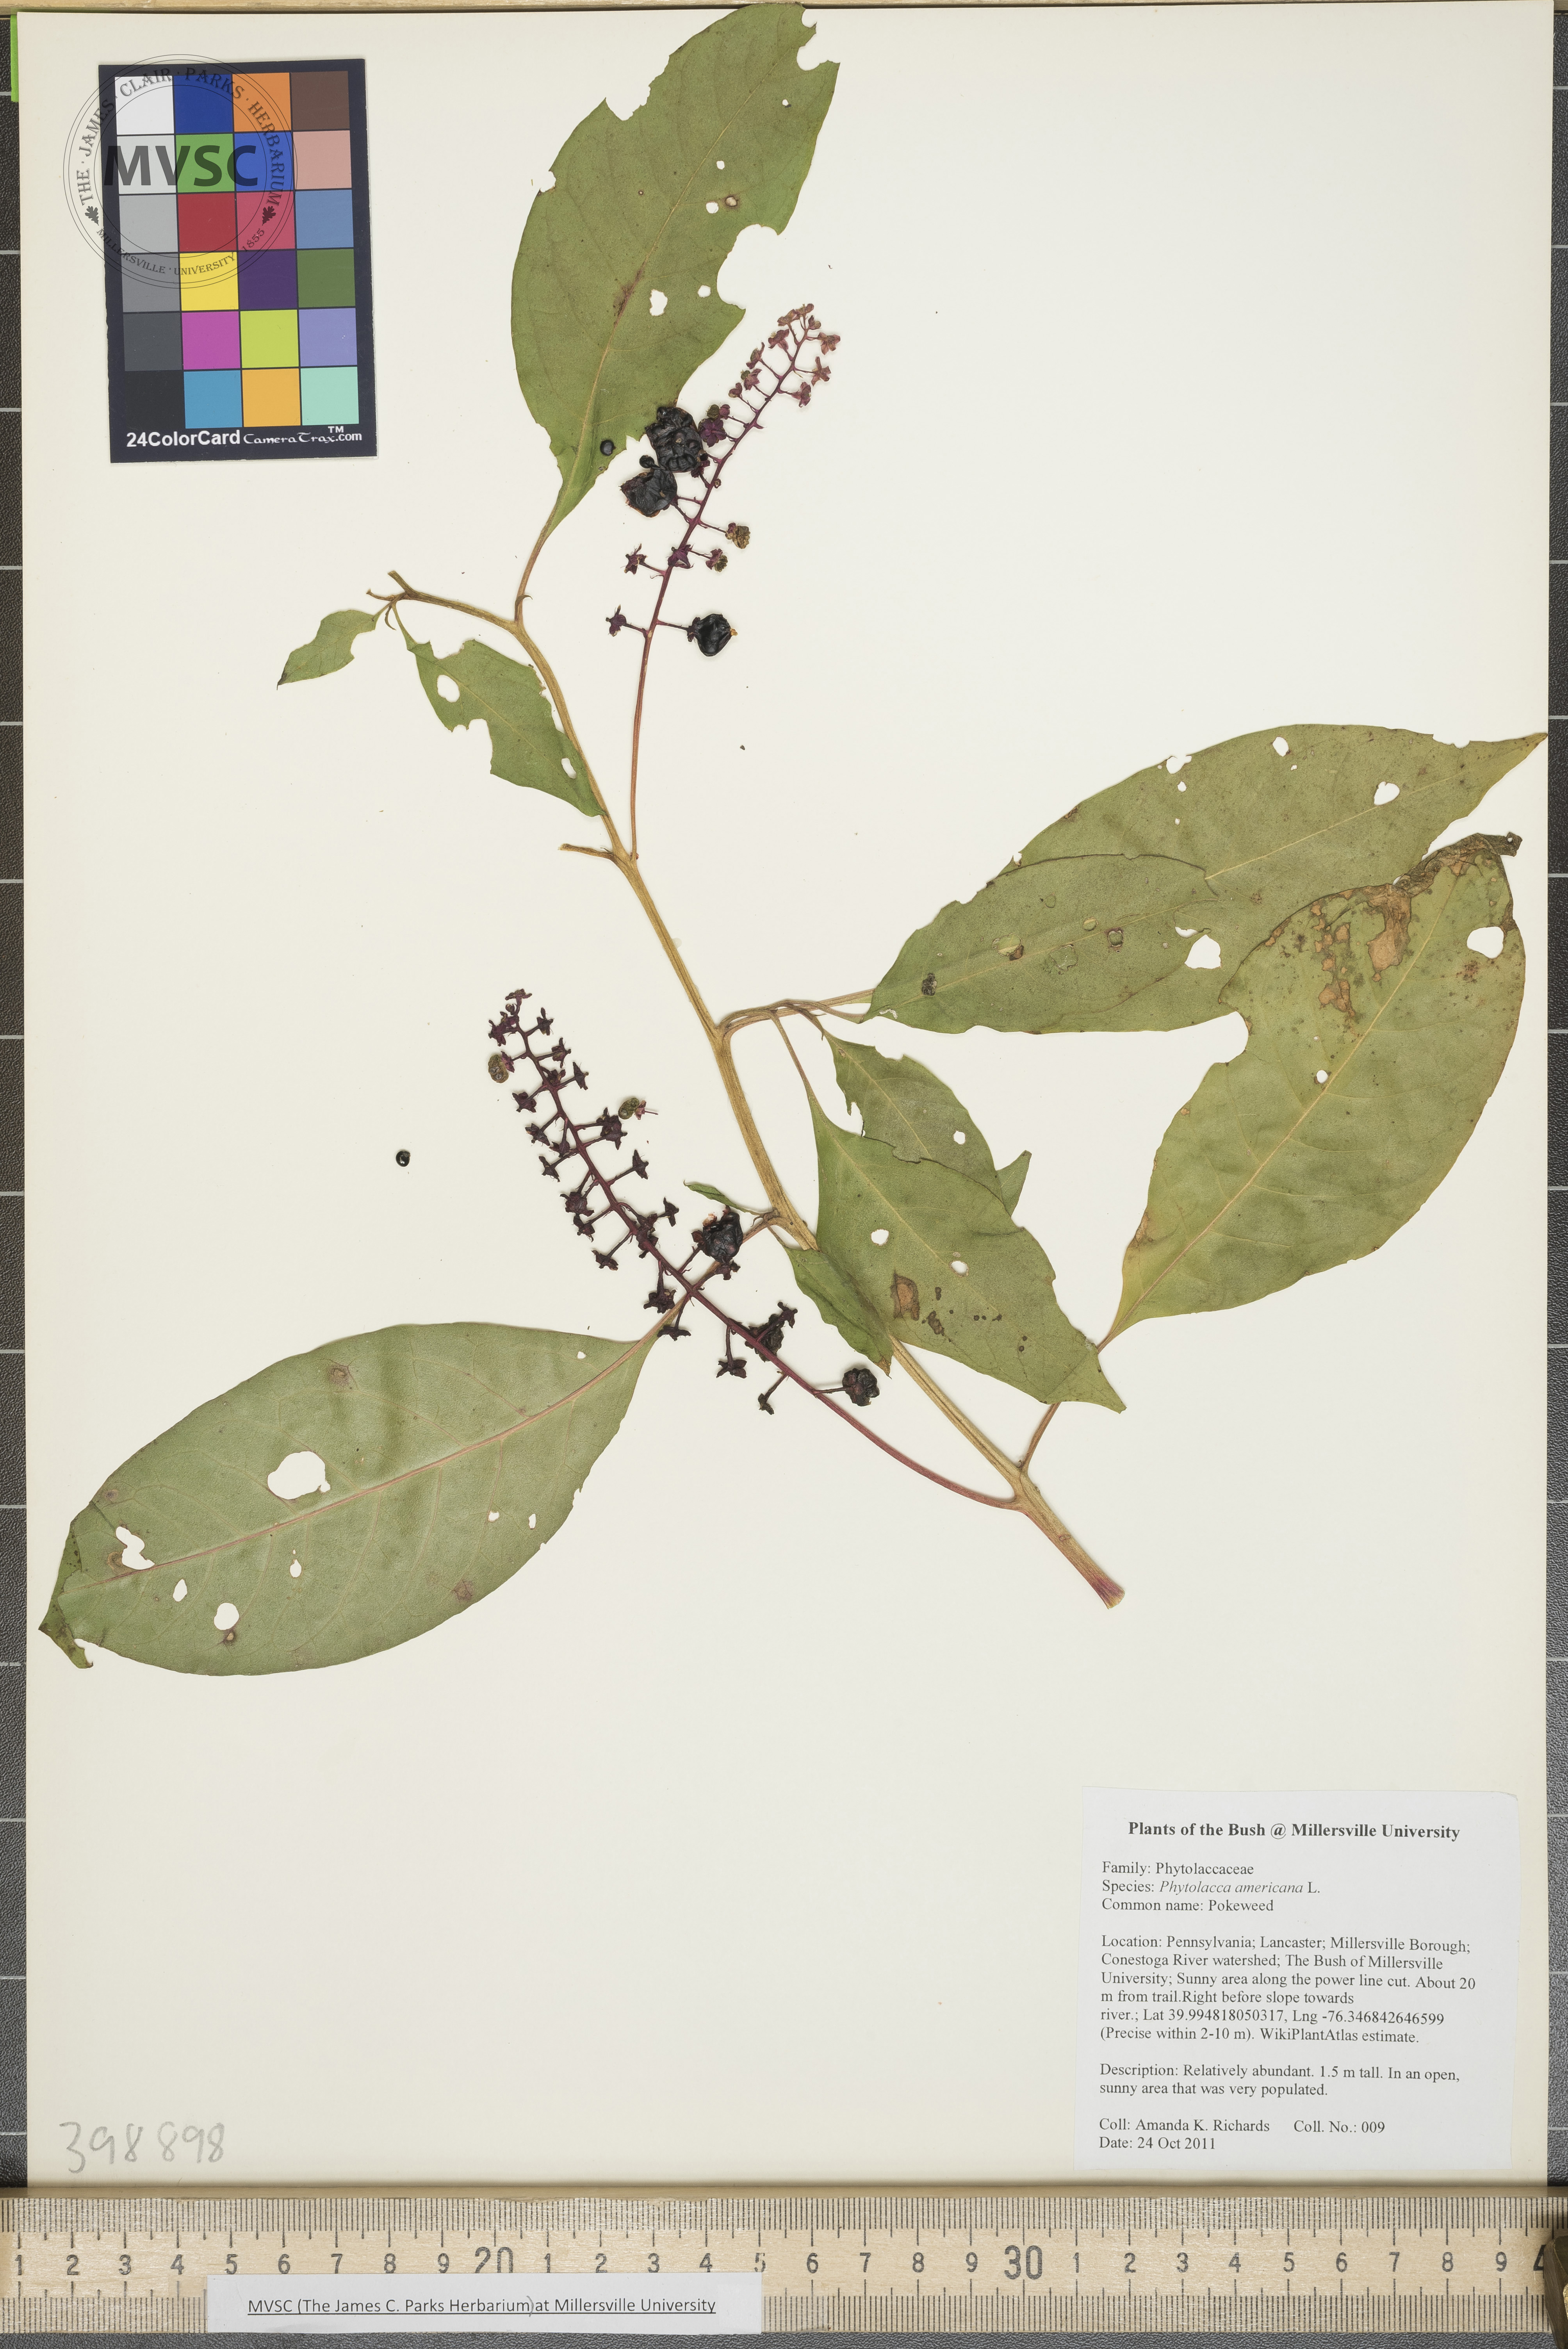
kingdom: Plantae
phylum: Tracheophyta
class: Magnoliopsida
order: Caryophyllales
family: Phytolaccaceae
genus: Phytolacca
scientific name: Phytolacca americana
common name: Pokeweed
